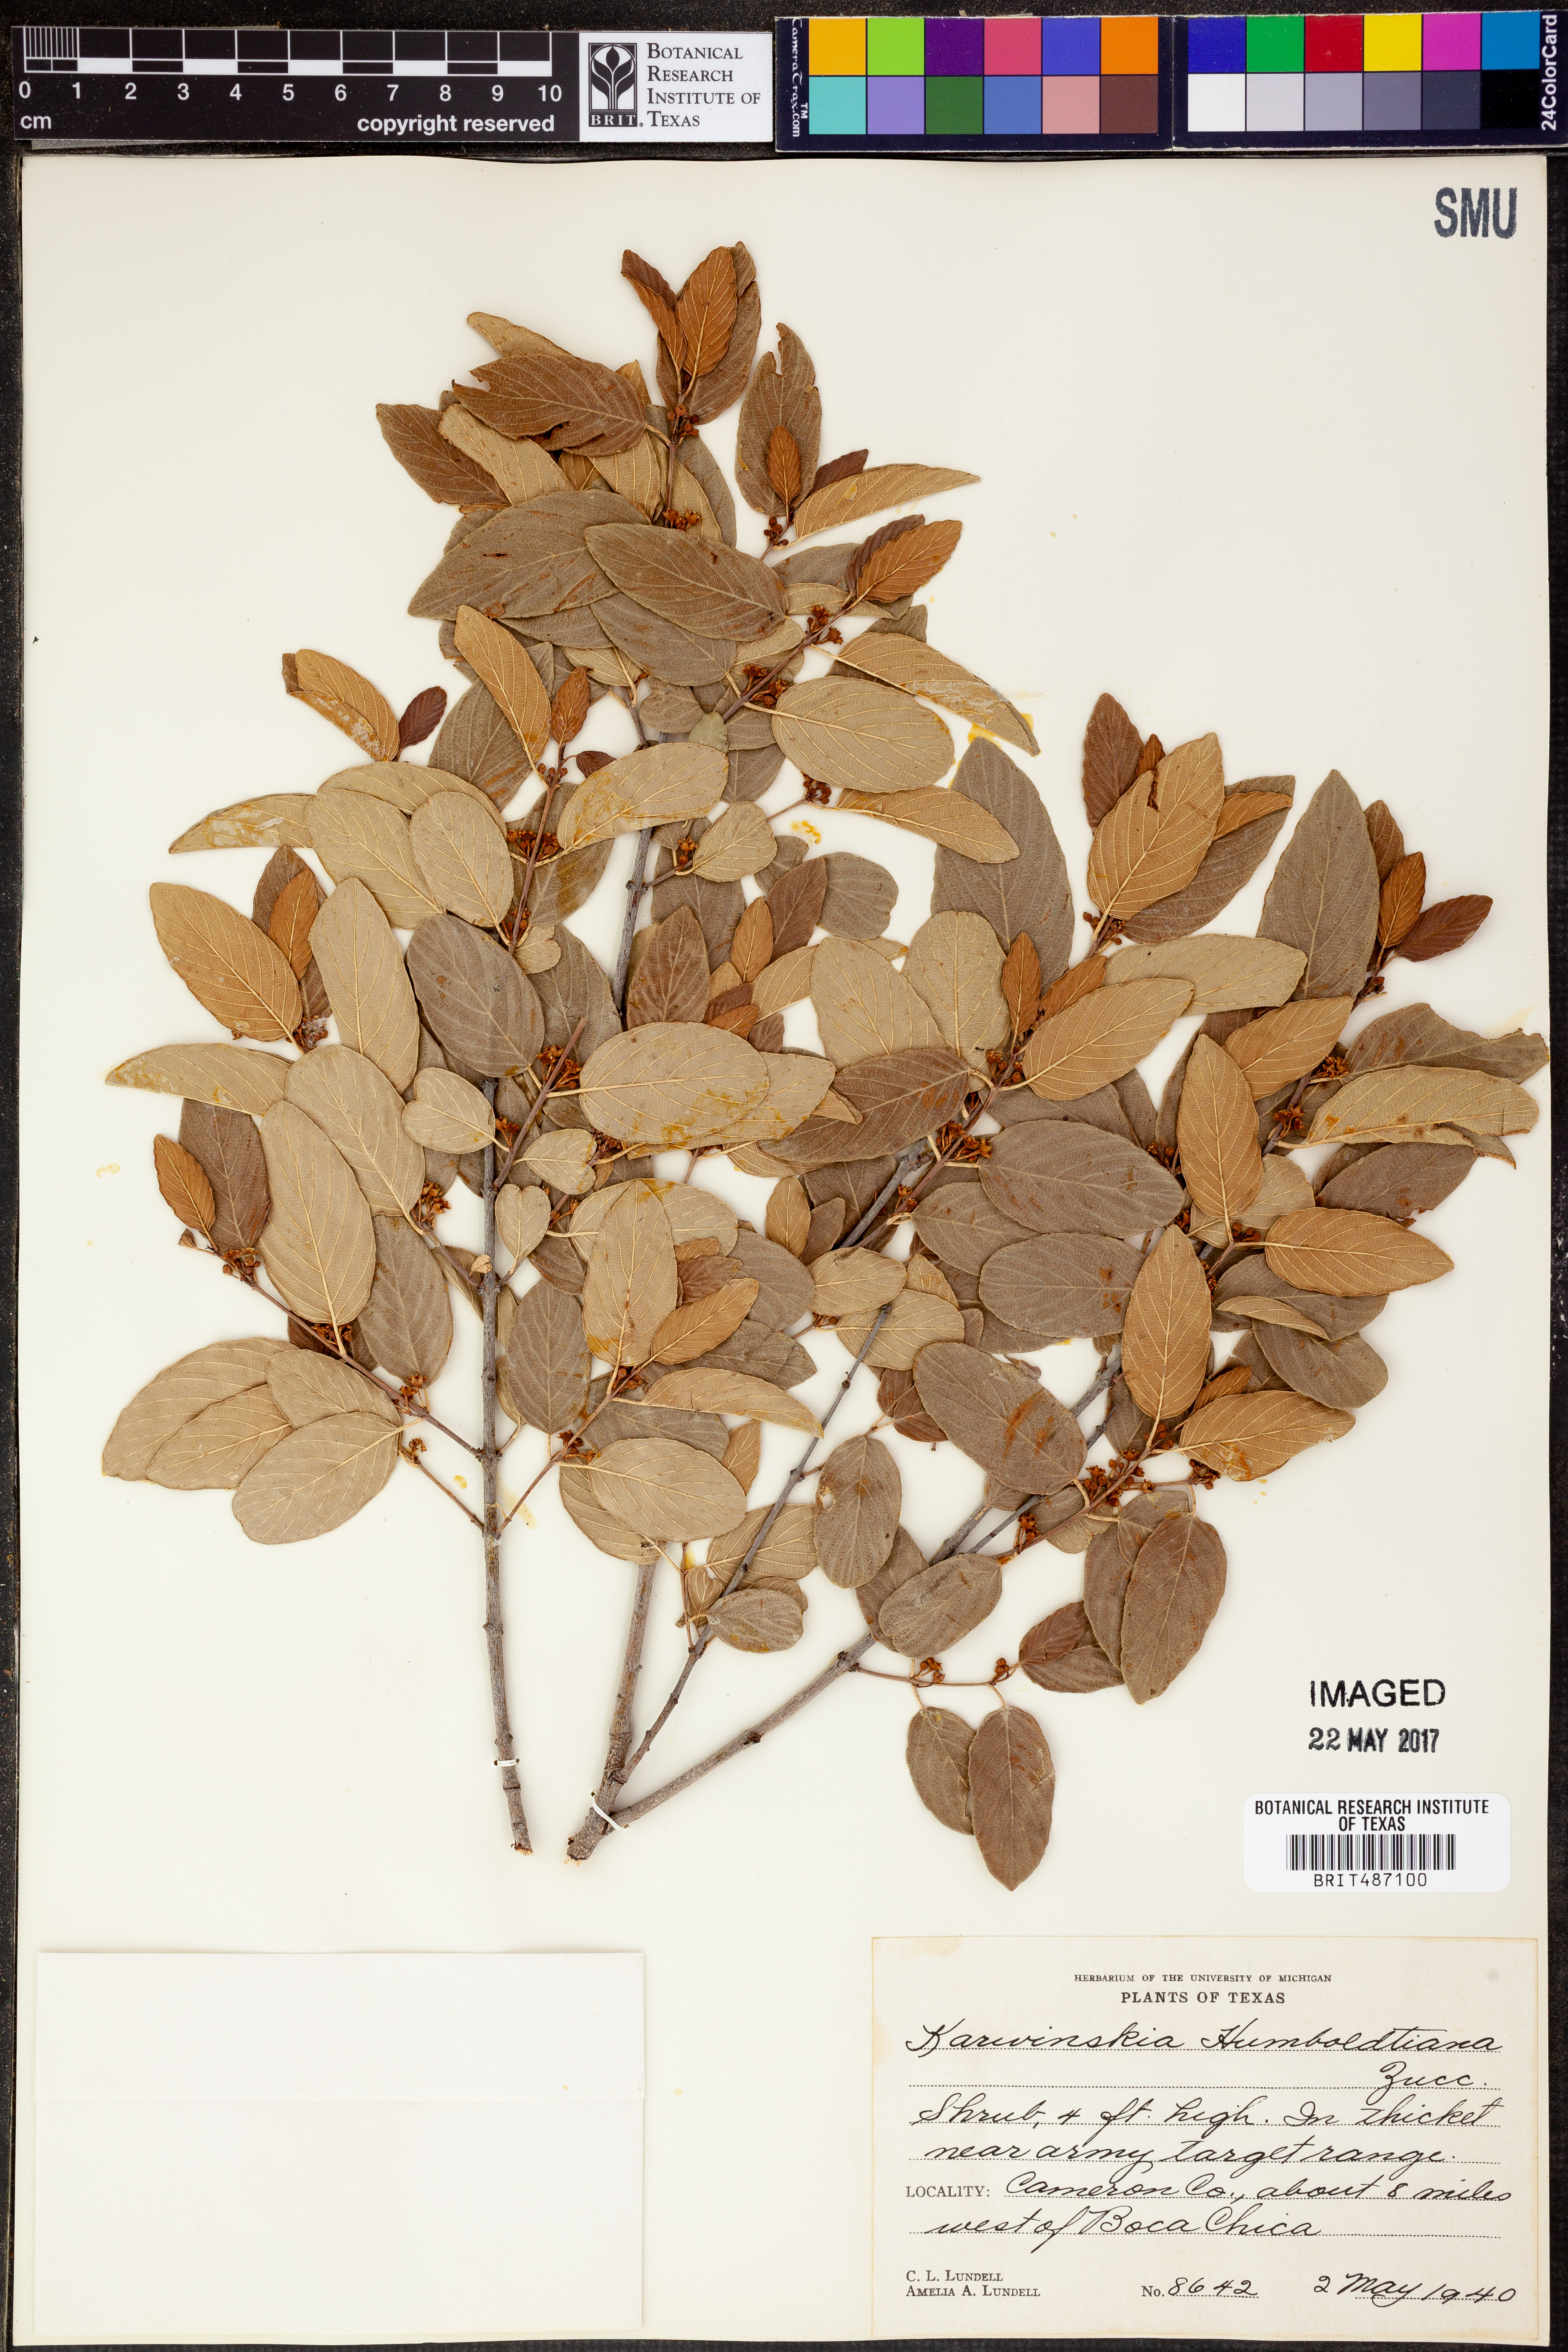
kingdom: Plantae
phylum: Tracheophyta
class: Magnoliopsida
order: Rosales
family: Rhamnaceae
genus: Karwinskia
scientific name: Karwinskia humboldtiana
